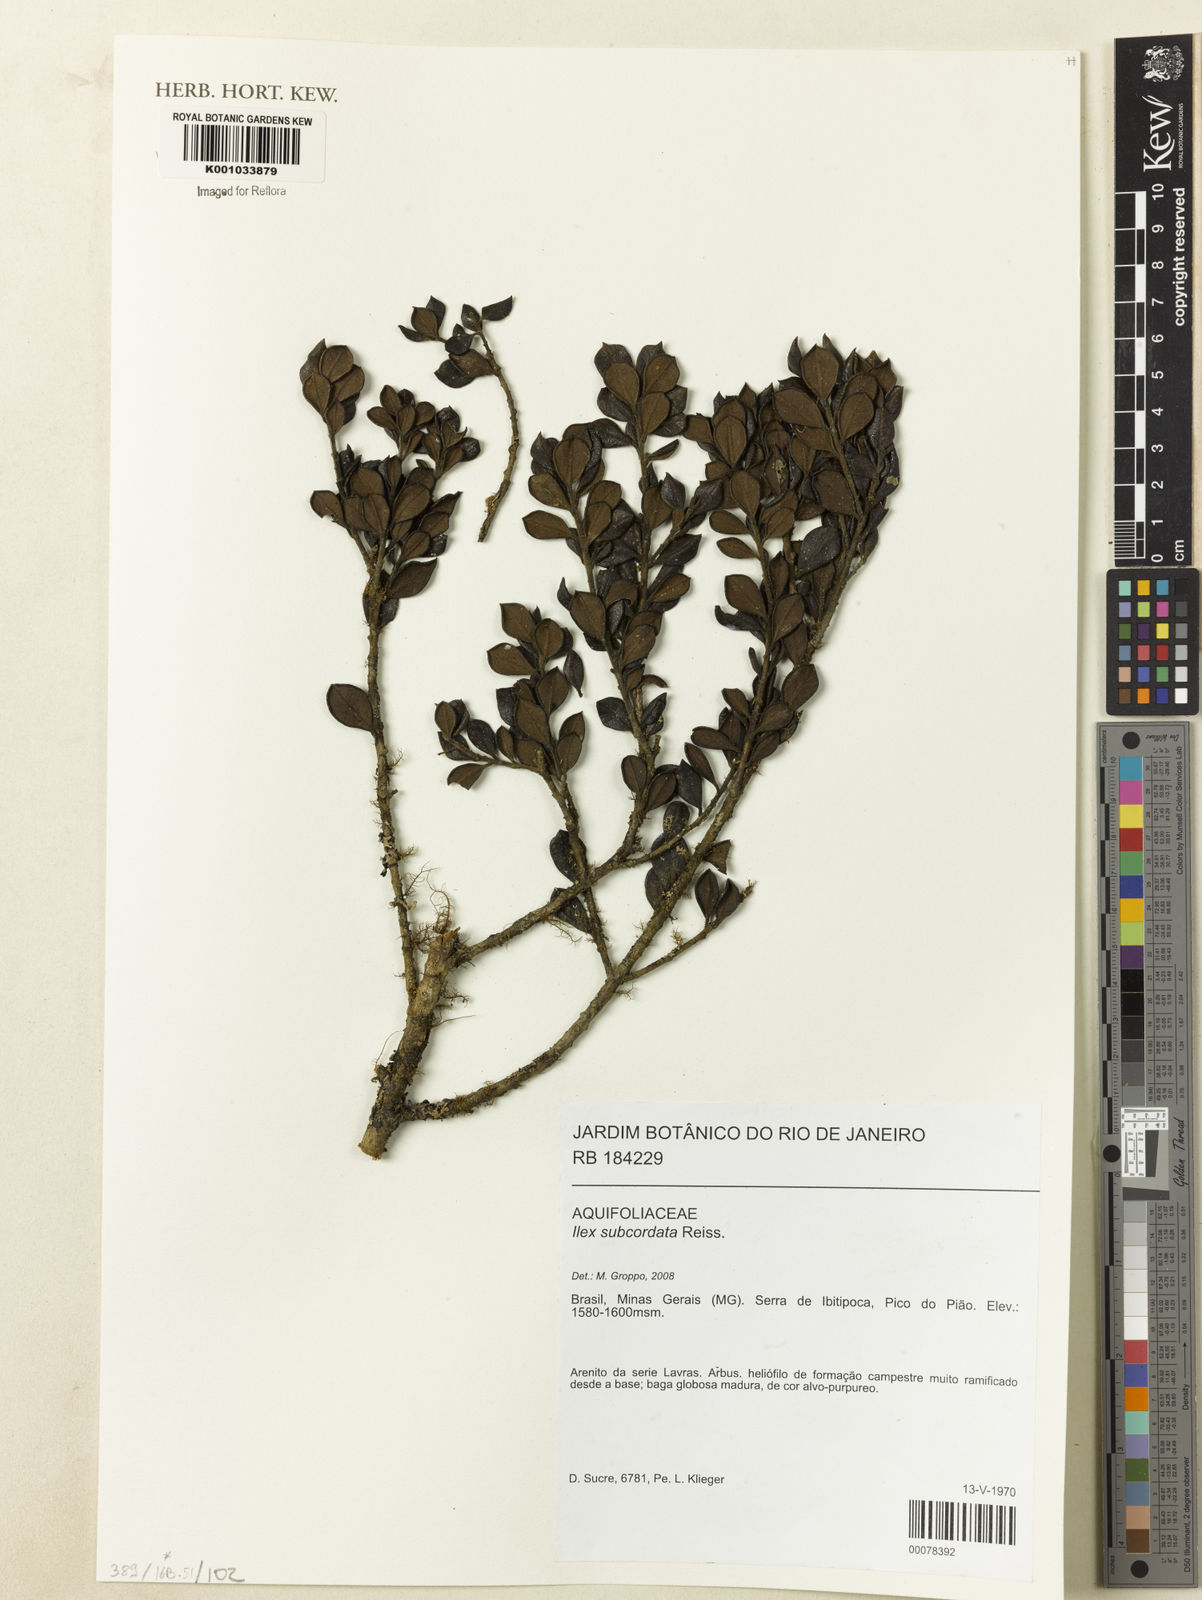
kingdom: Plantae
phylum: Tracheophyta
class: Magnoliopsida
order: Aquifoliales
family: Aquifoliaceae
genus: Ilex
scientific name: Ilex subcordata
